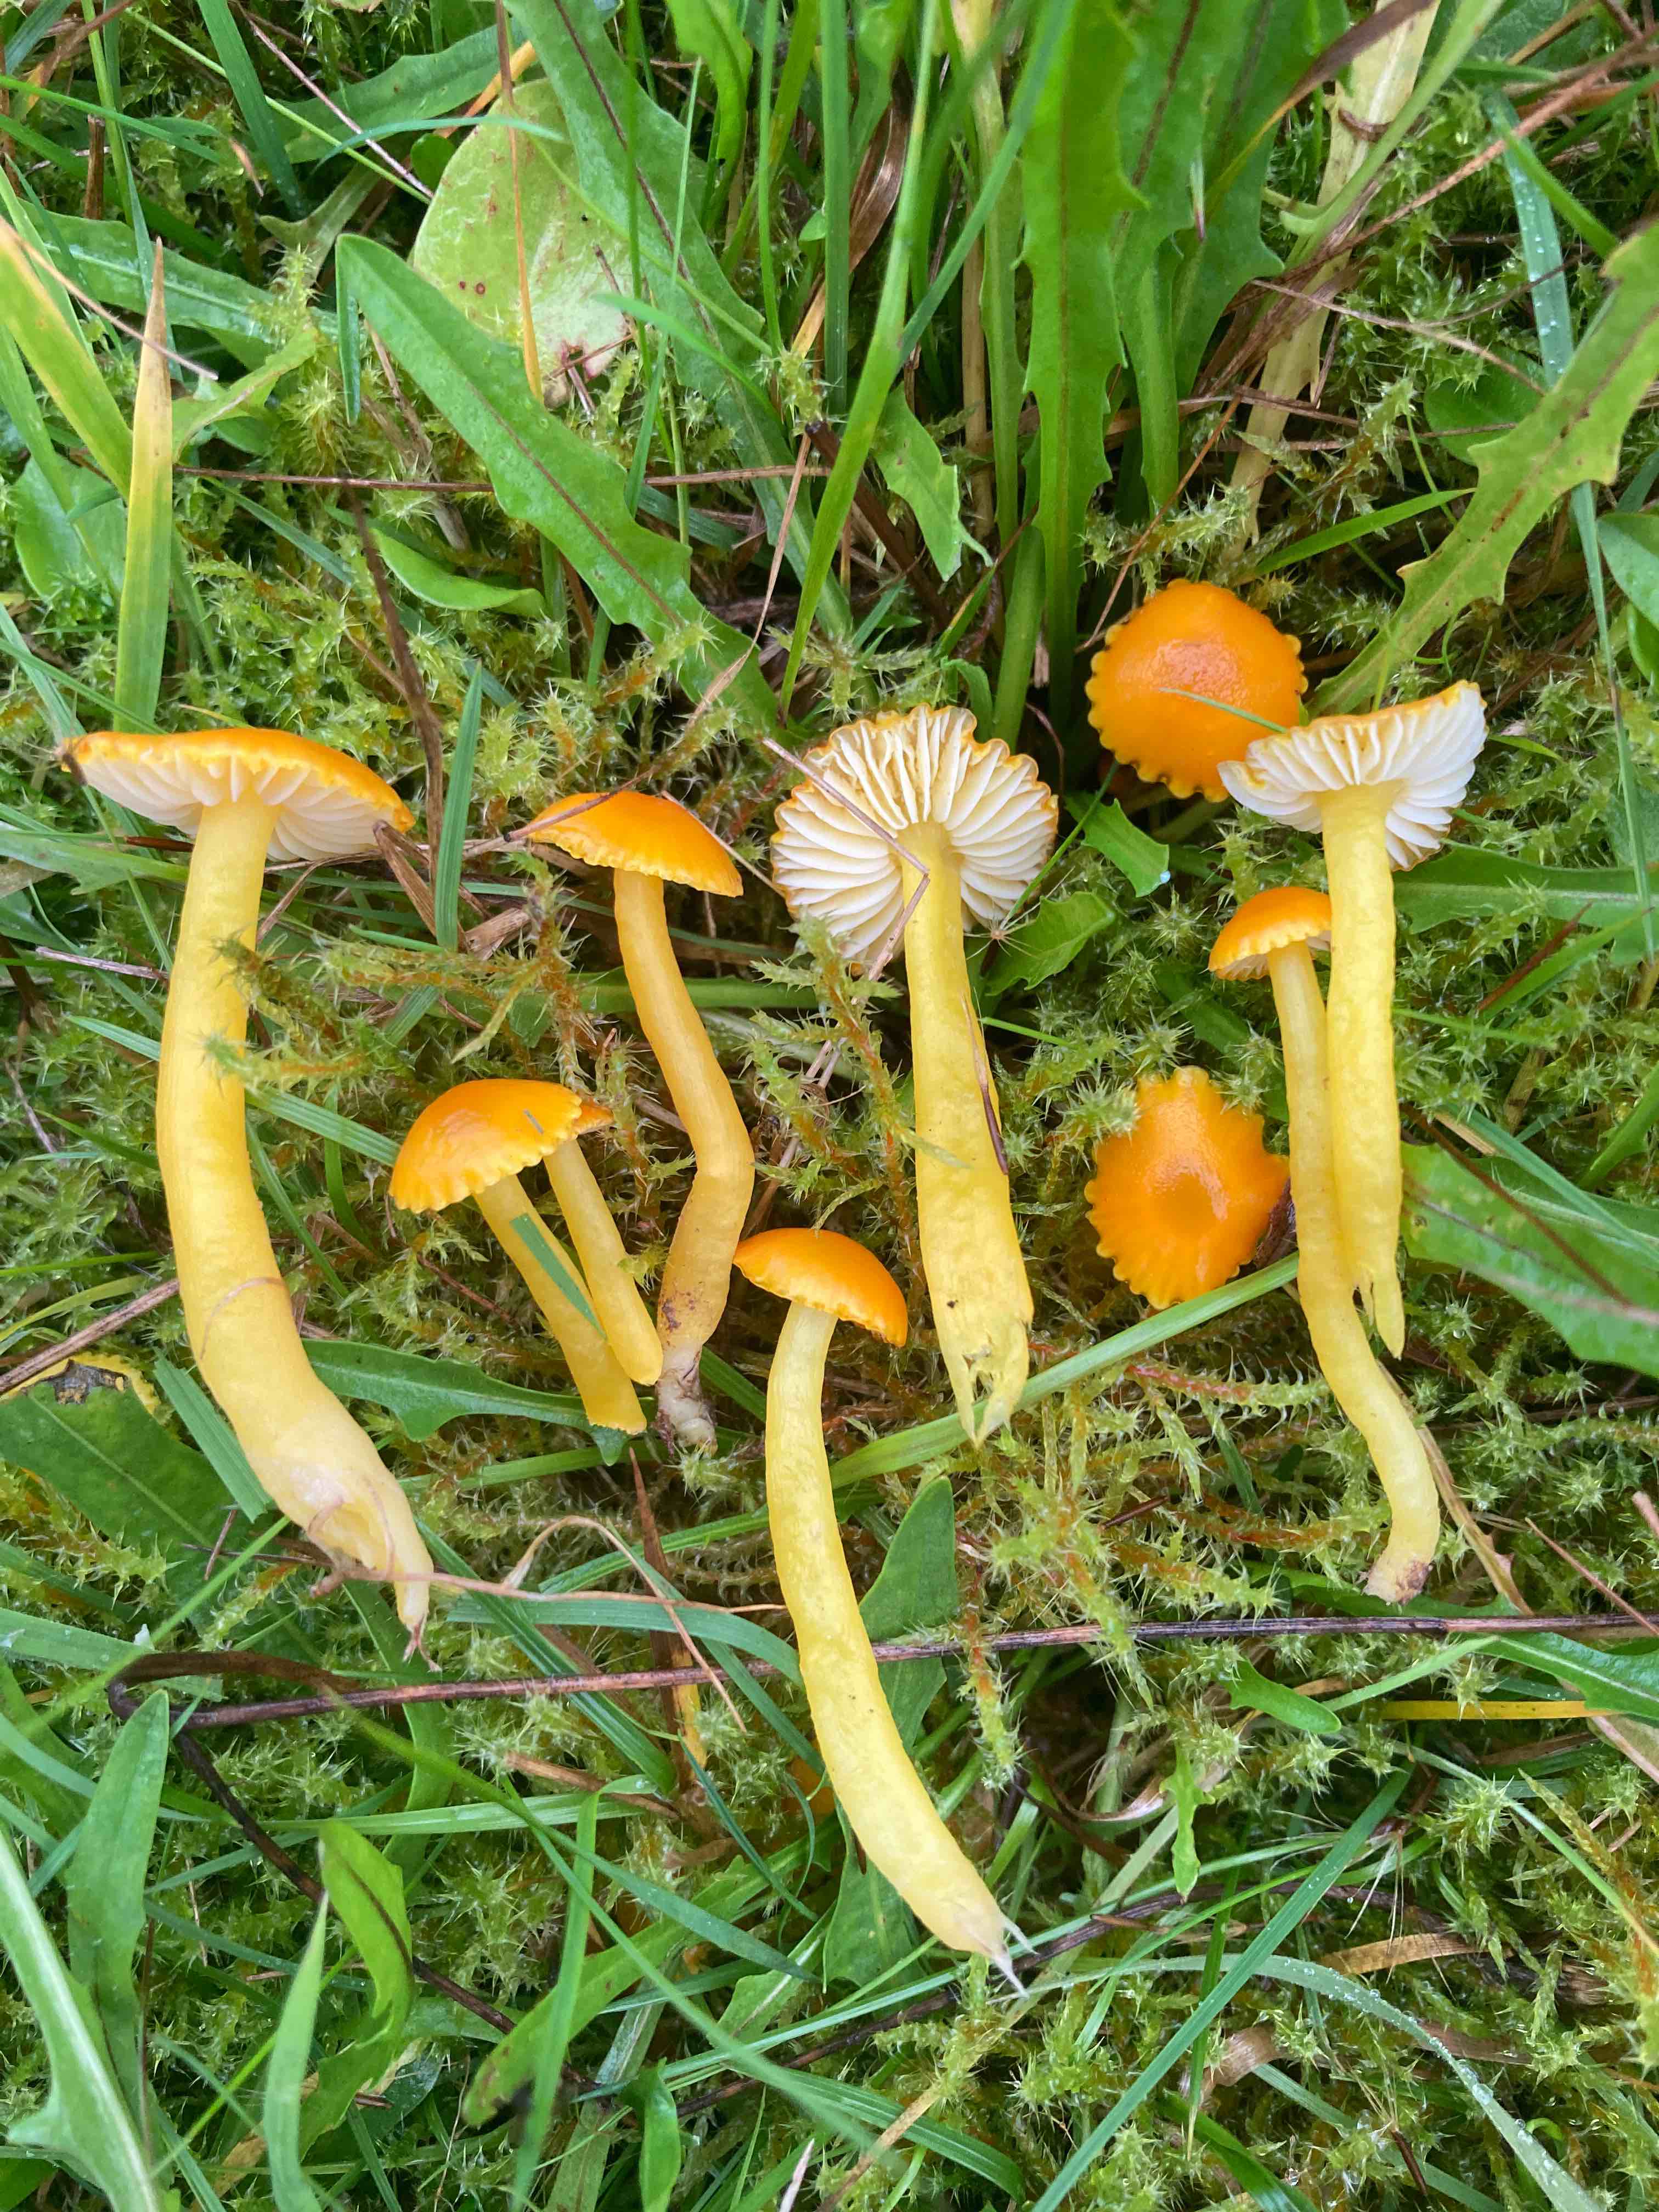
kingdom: Fungi
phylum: Basidiomycota
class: Agaricomycetes
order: Agaricales
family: Hygrophoraceae
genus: Hygrocybe
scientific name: Hygrocybe ceracea
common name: voksgul vokshat
